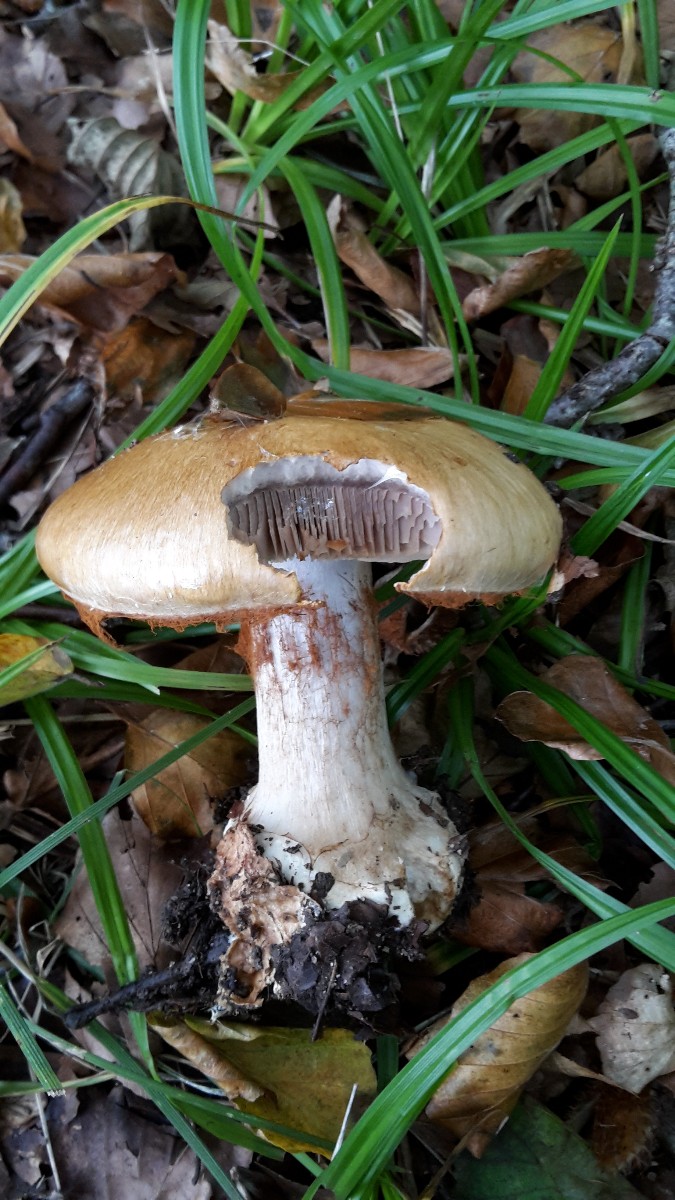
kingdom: Fungi
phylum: Basidiomycota
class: Agaricomycetes
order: Agaricales
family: Cortinariaceae
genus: Cortinarius
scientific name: Cortinarius anserinus
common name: bøge-slørhat
